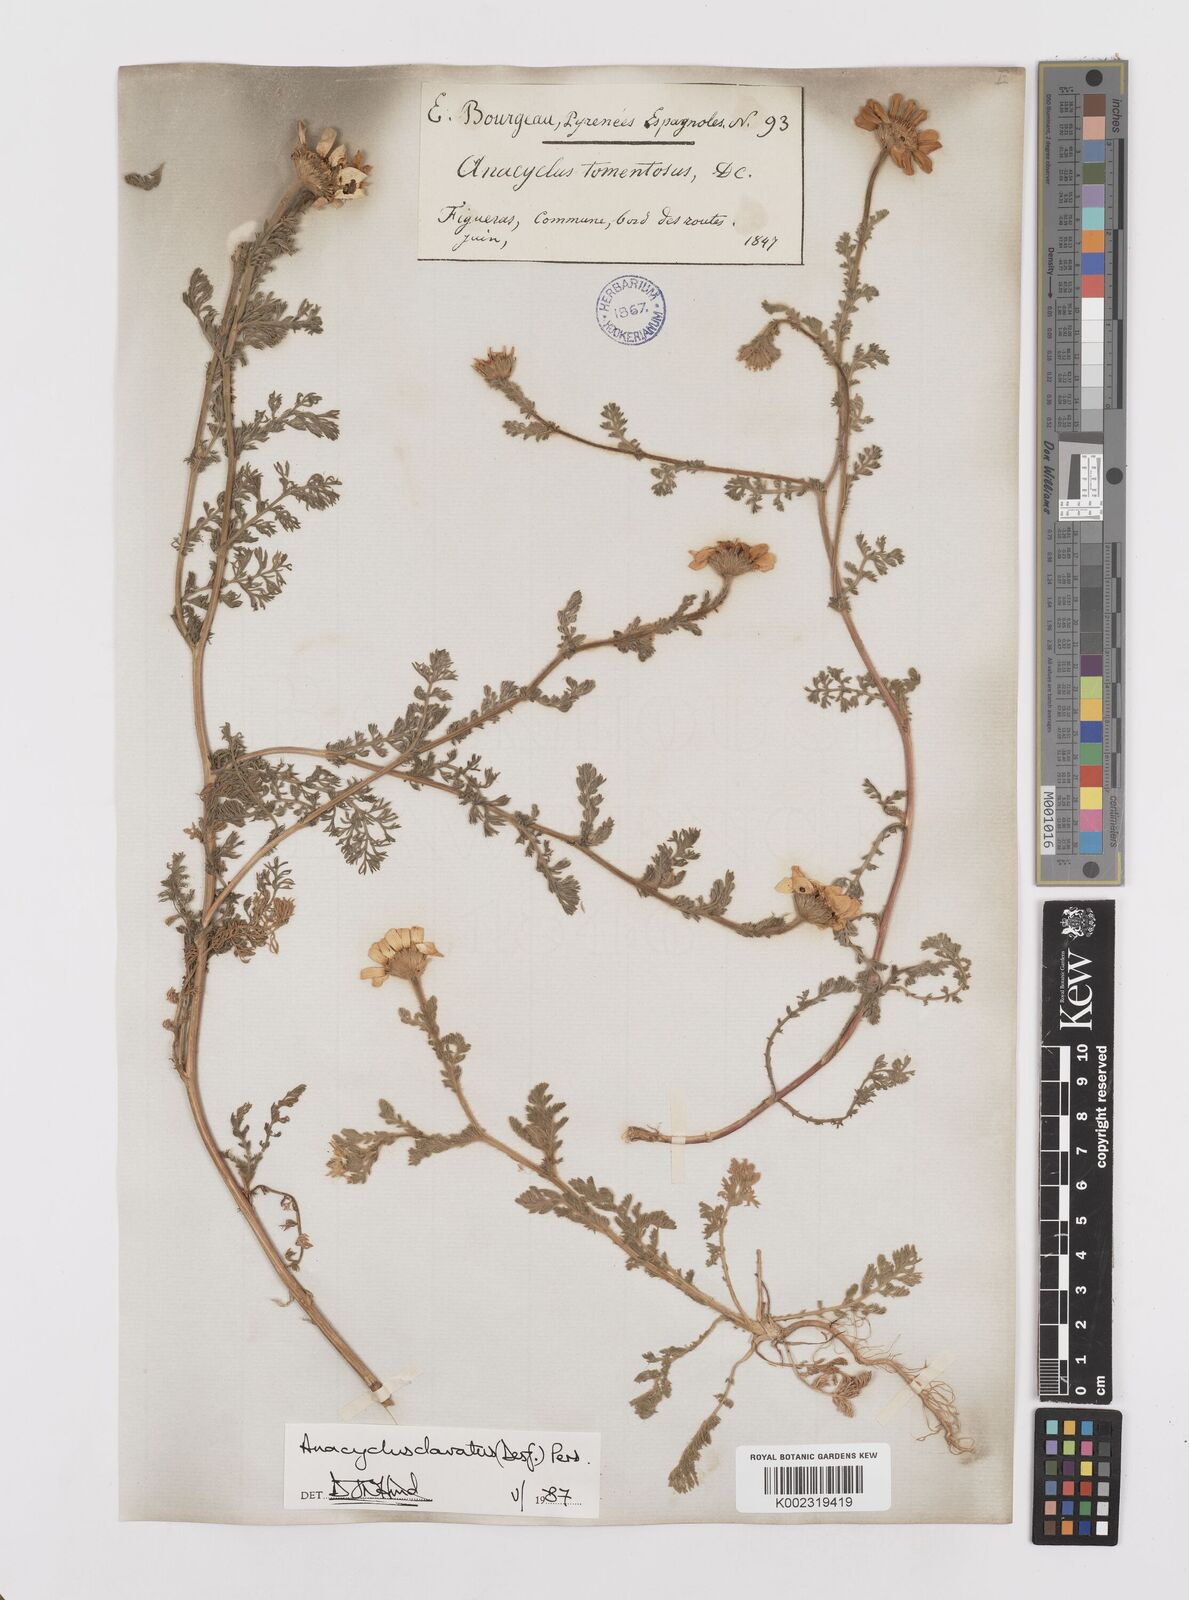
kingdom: Plantae
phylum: Tracheophyta
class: Magnoliopsida
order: Asterales
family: Asteraceae
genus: Anacyclus
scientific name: Anacyclus clavatus
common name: Whitebuttons
